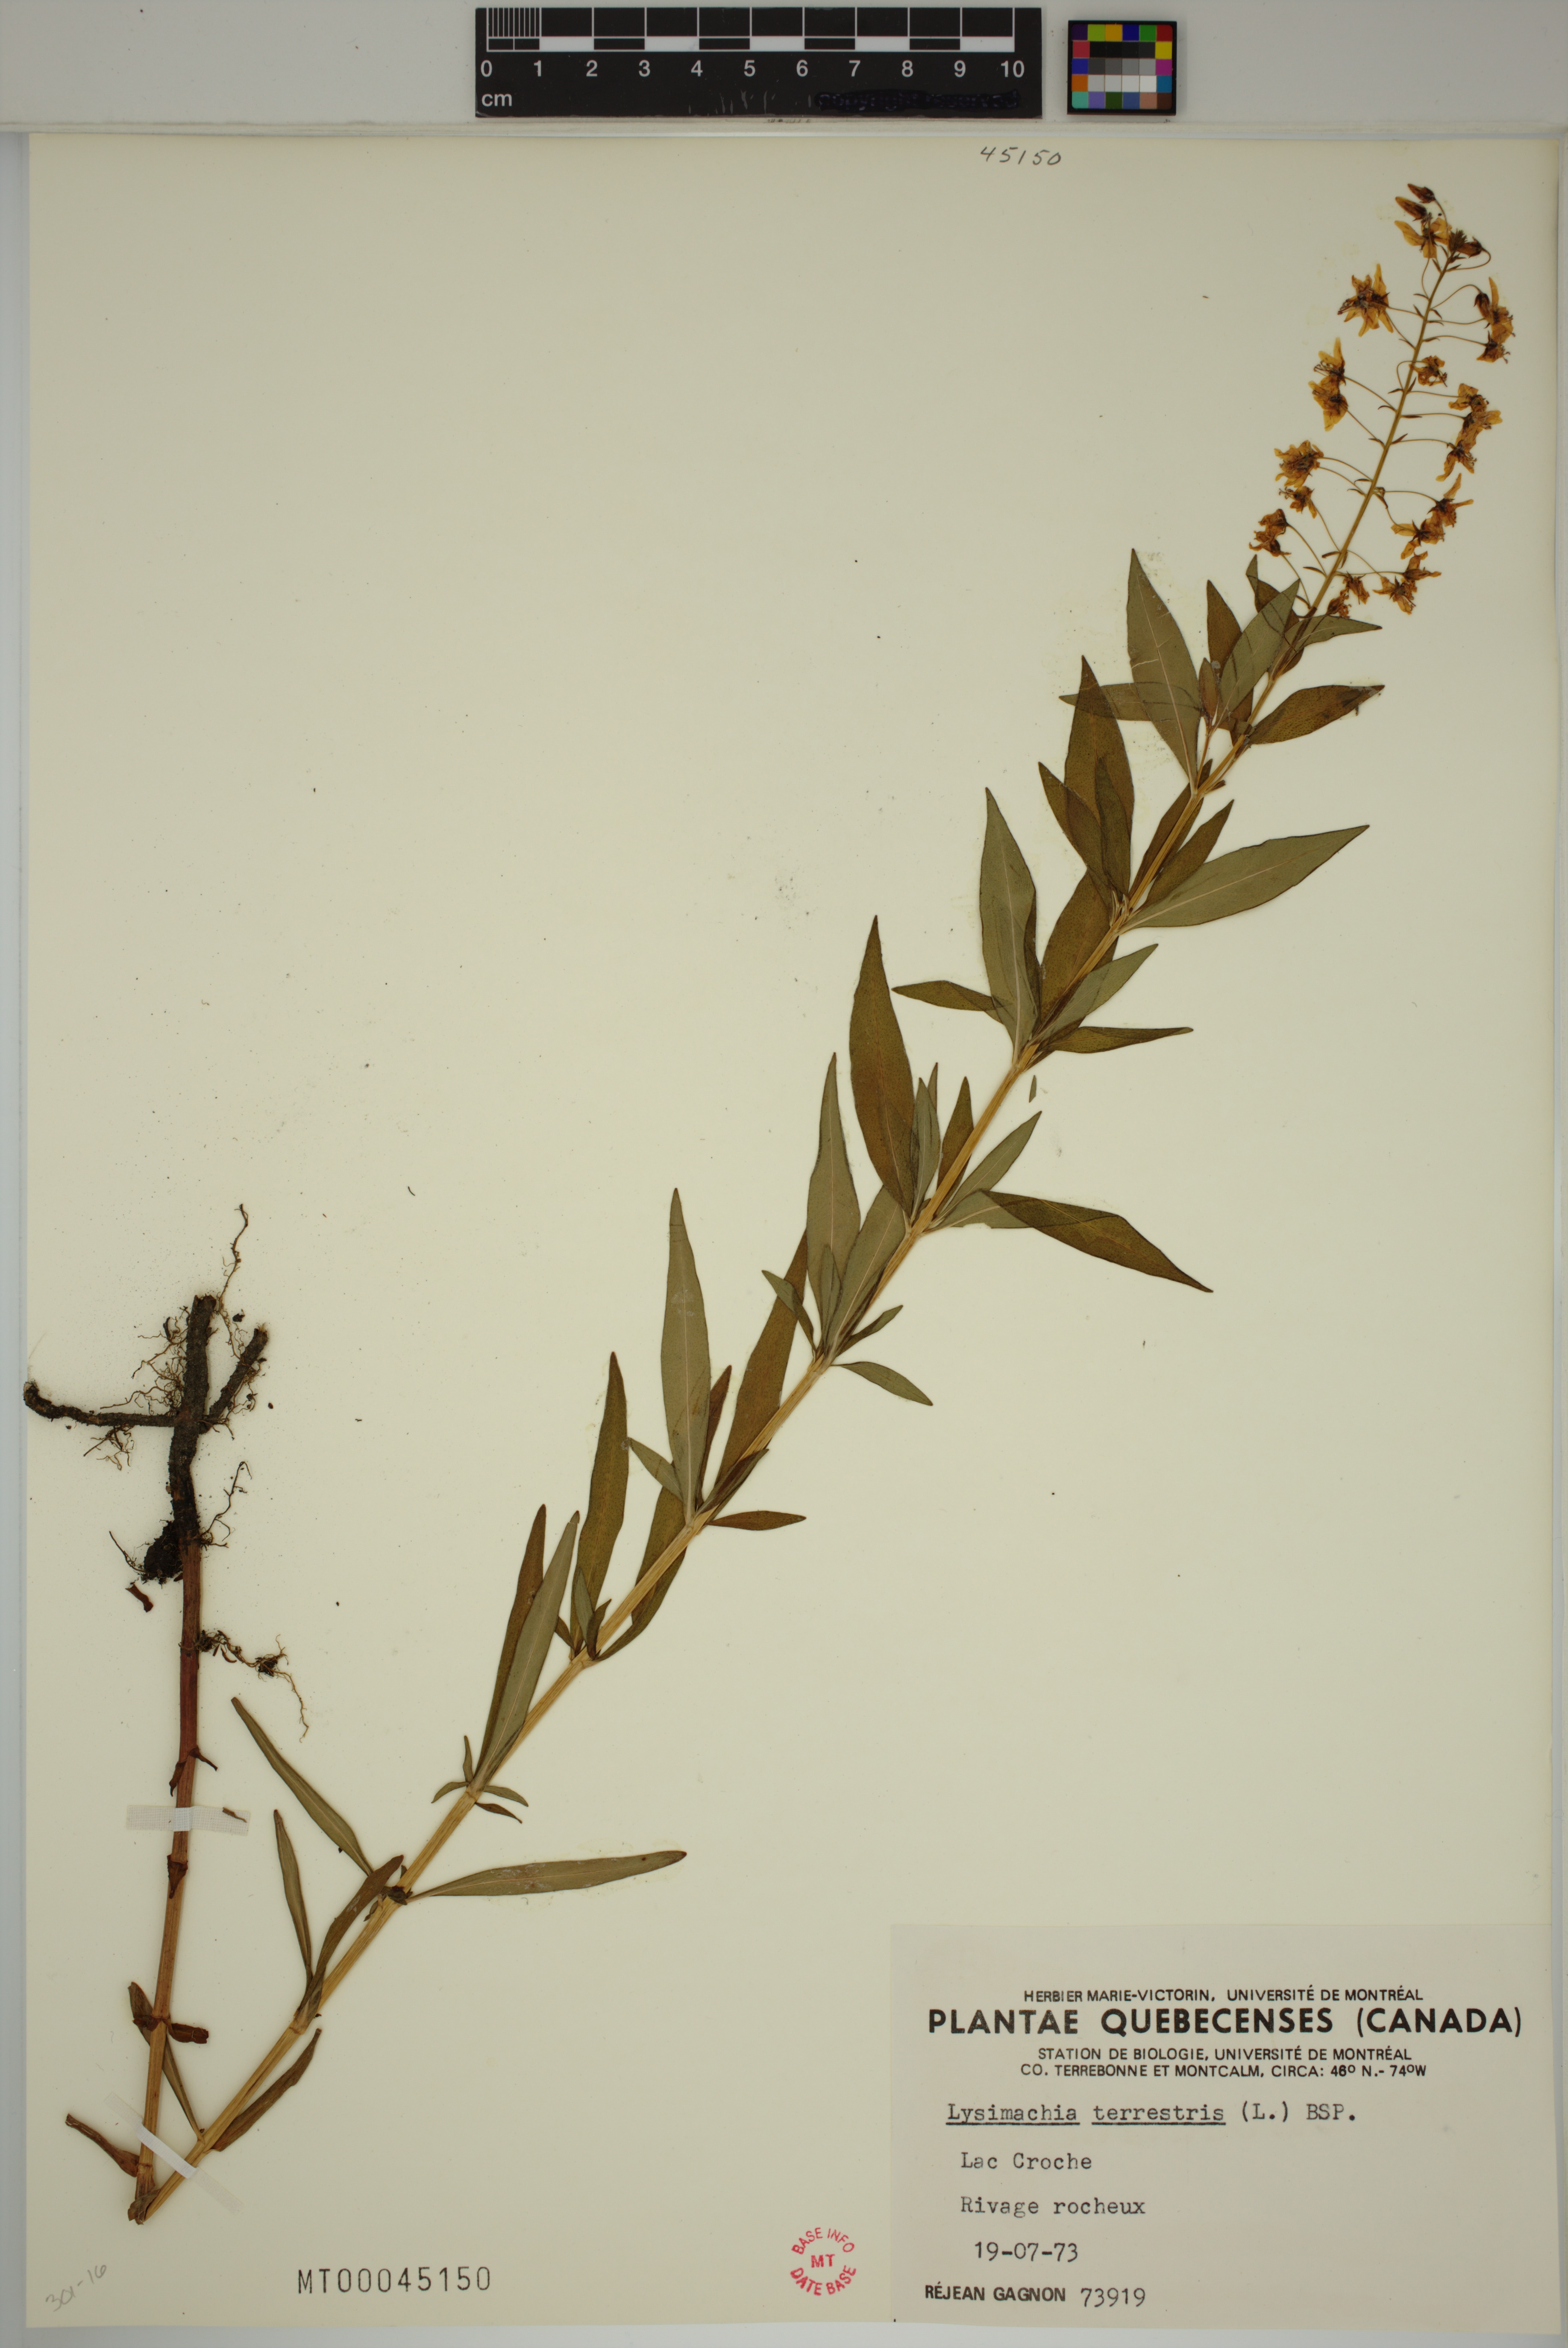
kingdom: Plantae
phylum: Tracheophyta
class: Magnoliopsida
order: Ericales
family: Primulaceae
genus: Lysimachia
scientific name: Lysimachia terrestris
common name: Lake loosestrife
